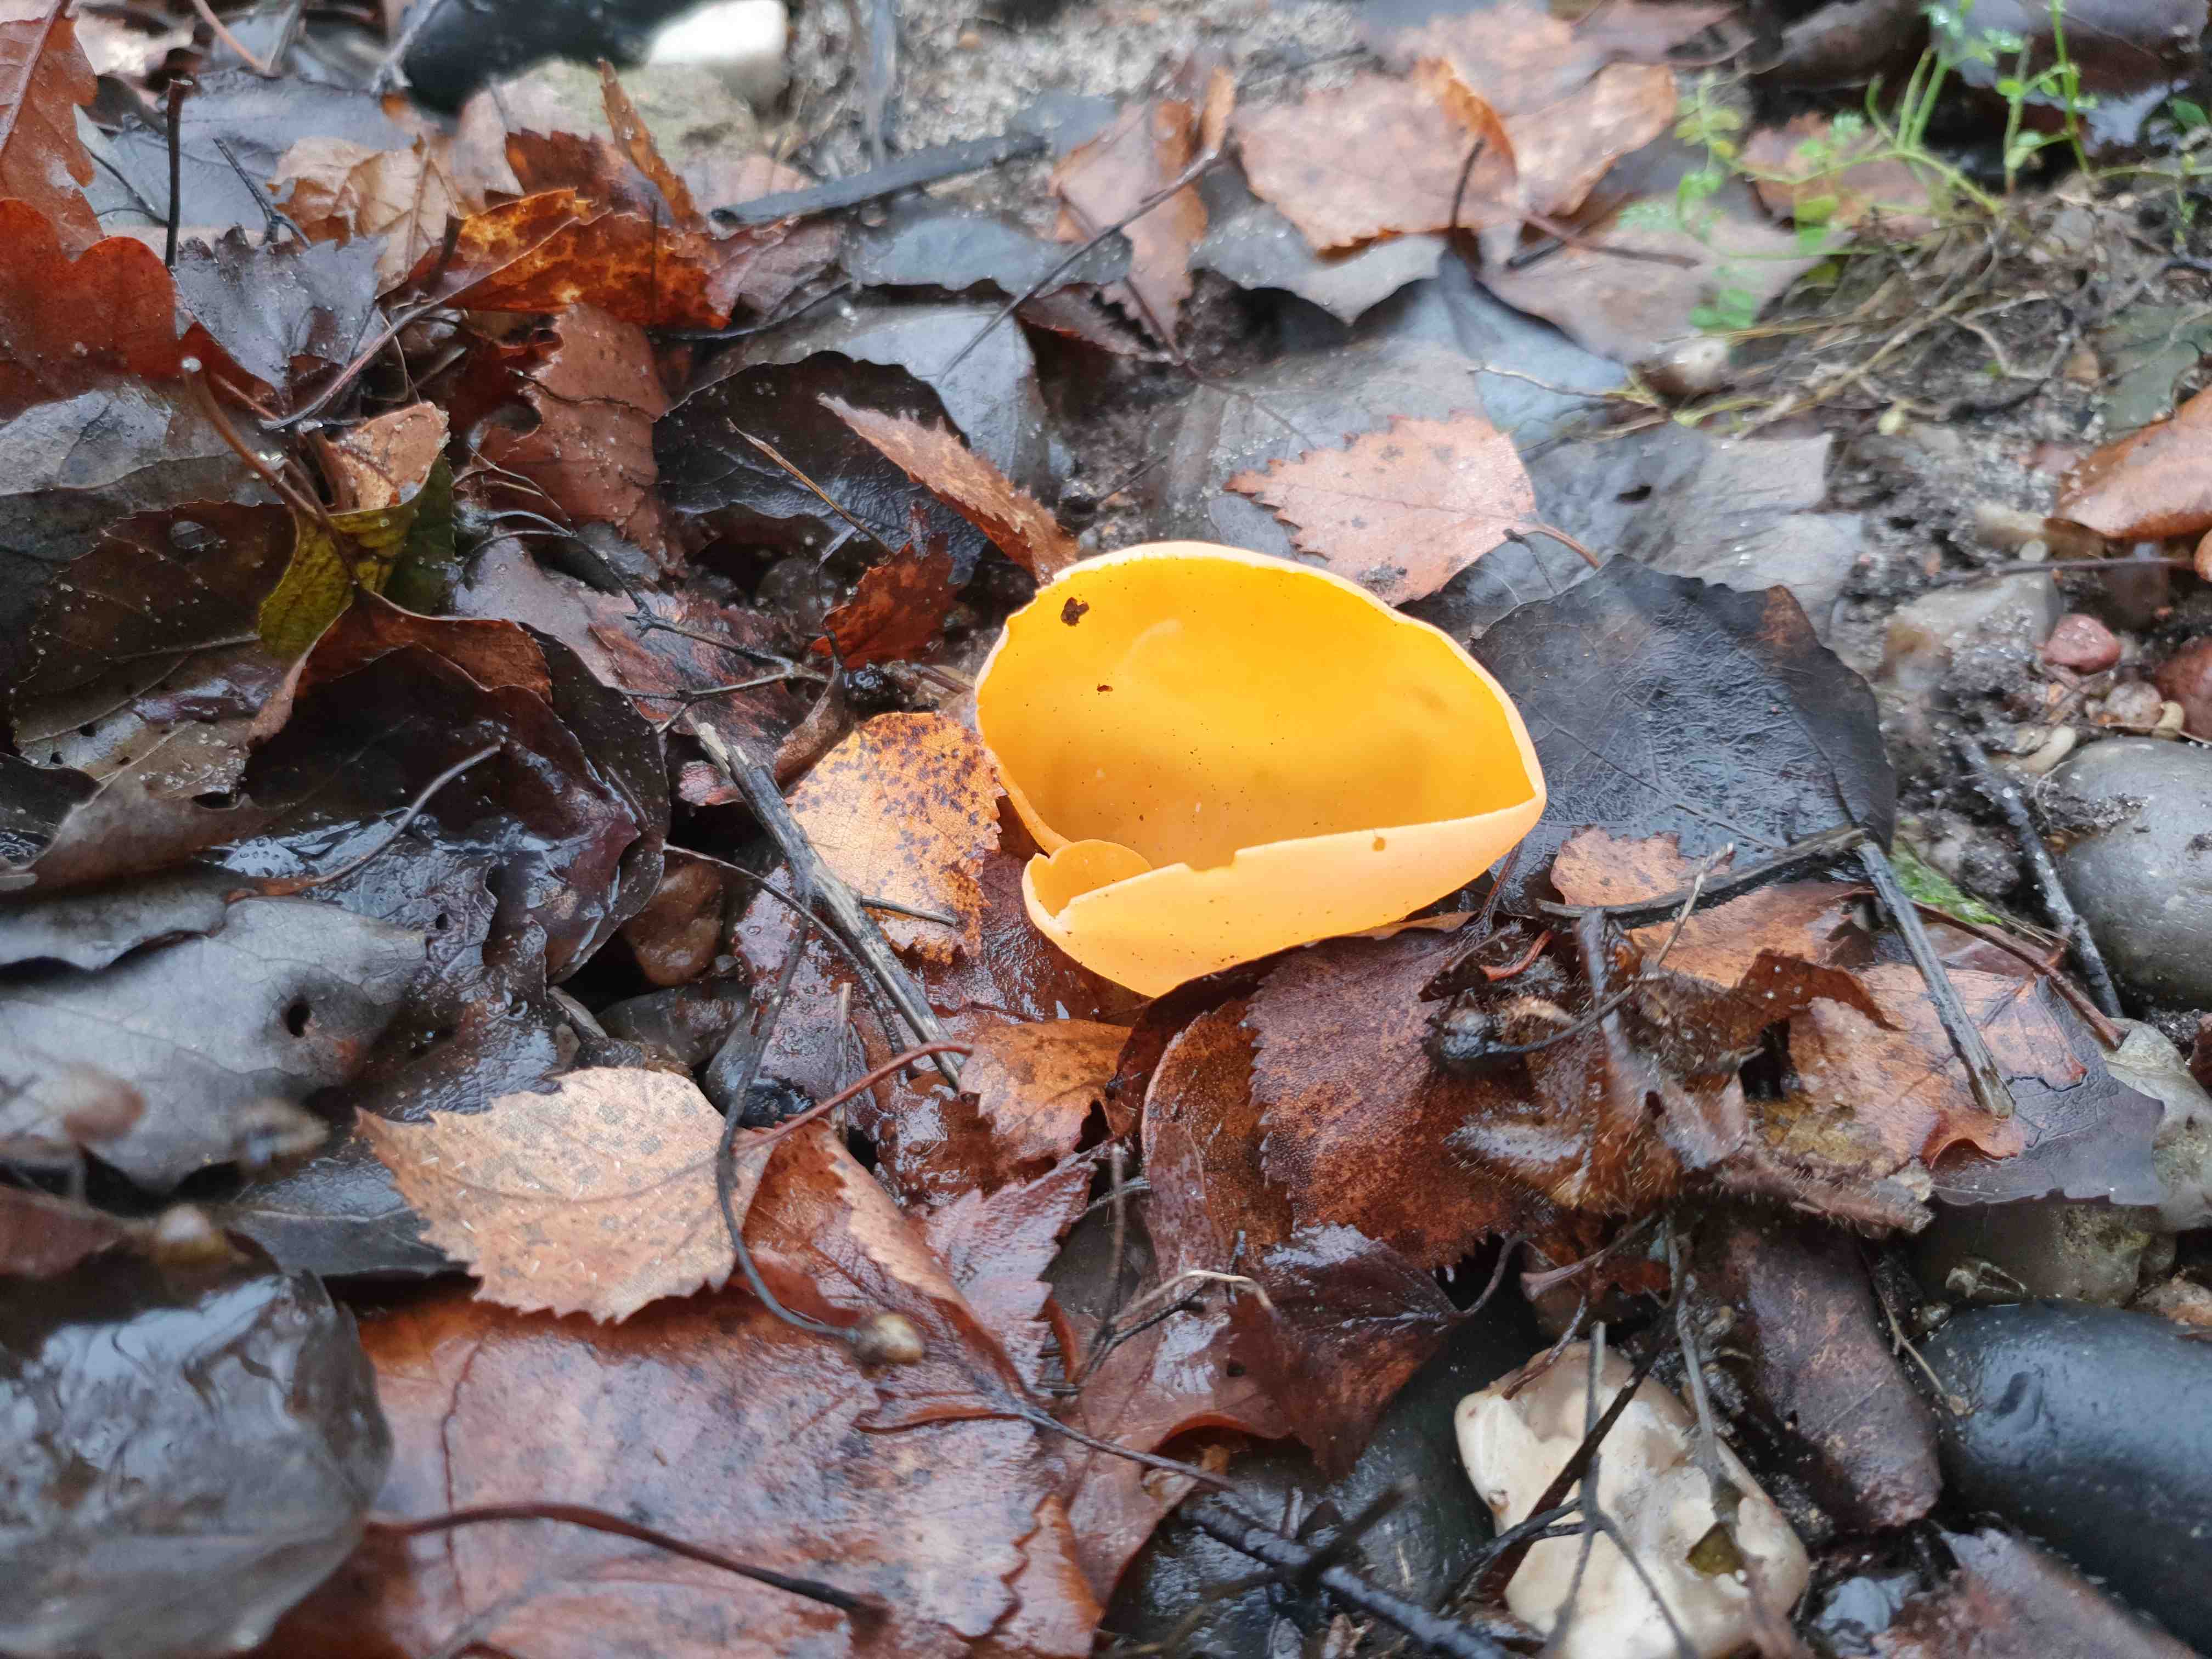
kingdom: Fungi
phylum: Ascomycota
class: Pezizomycetes
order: Pezizales
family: Pyronemataceae
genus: Aleuria
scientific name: Aleuria aurantia
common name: almindelig orangebæger
